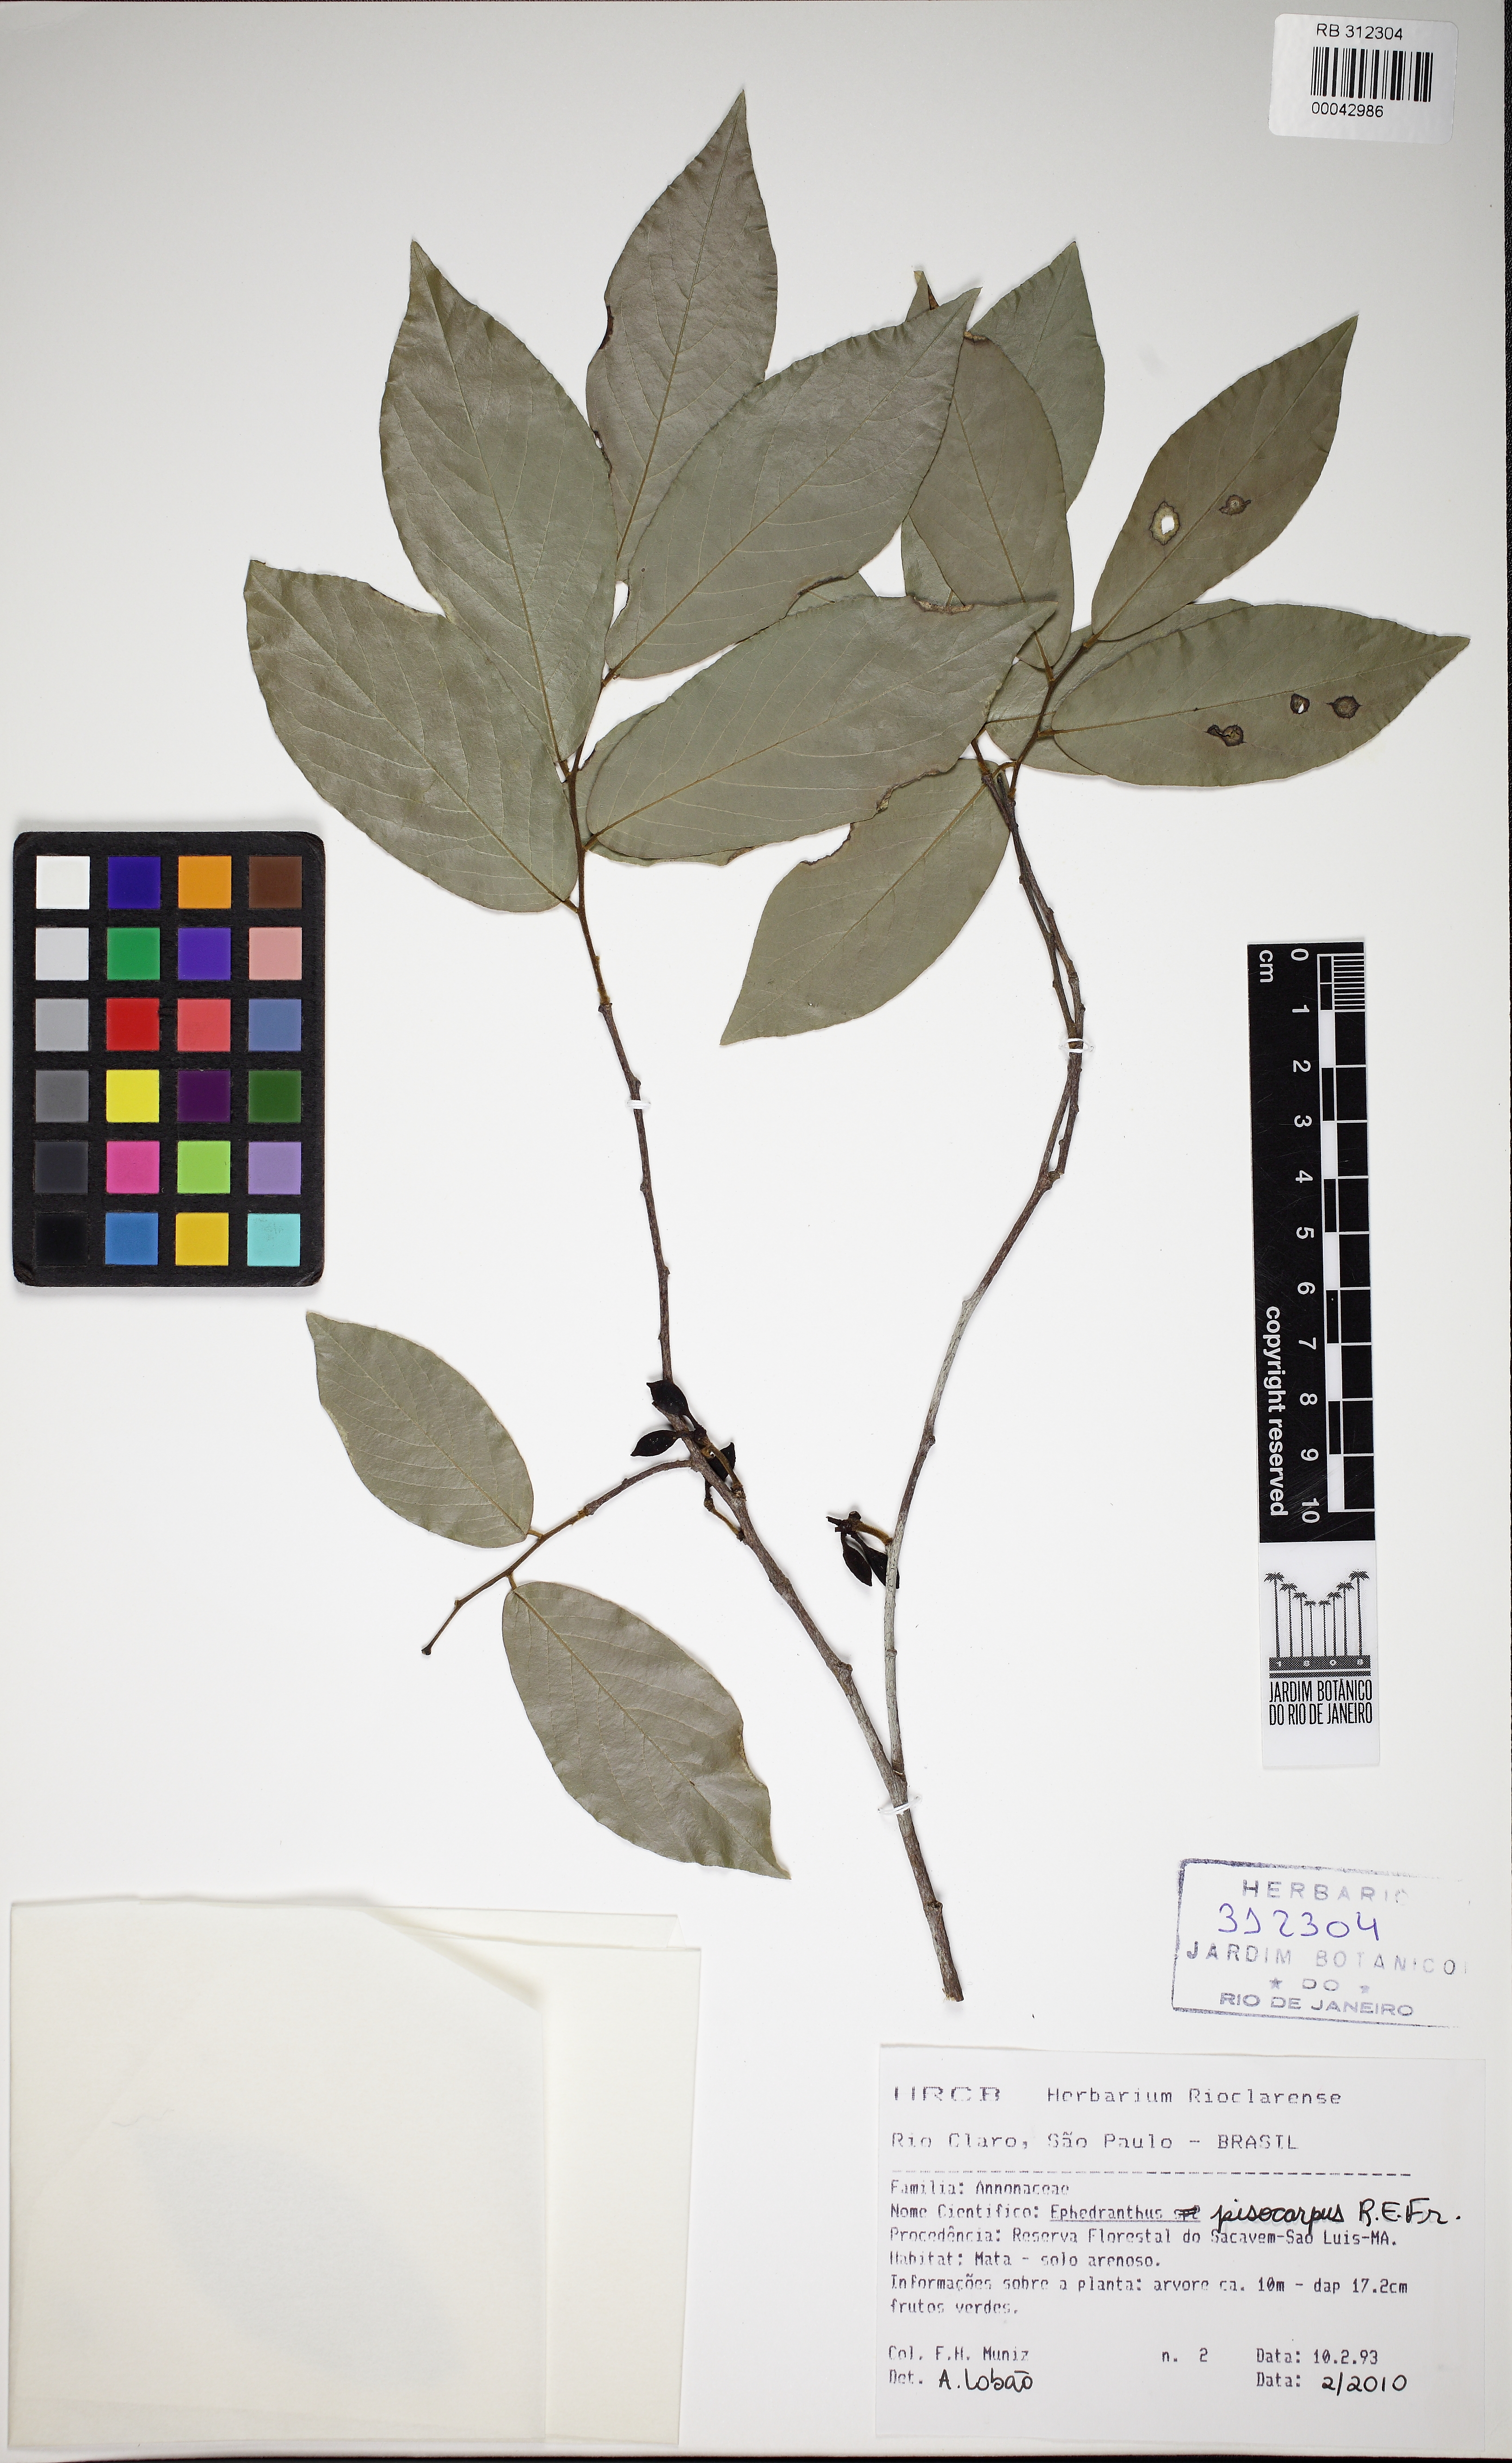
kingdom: Plantae
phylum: Tracheophyta
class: Magnoliopsida
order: Magnoliales
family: Annonaceae
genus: Ephedranthus
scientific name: Ephedranthus pisocarpus
